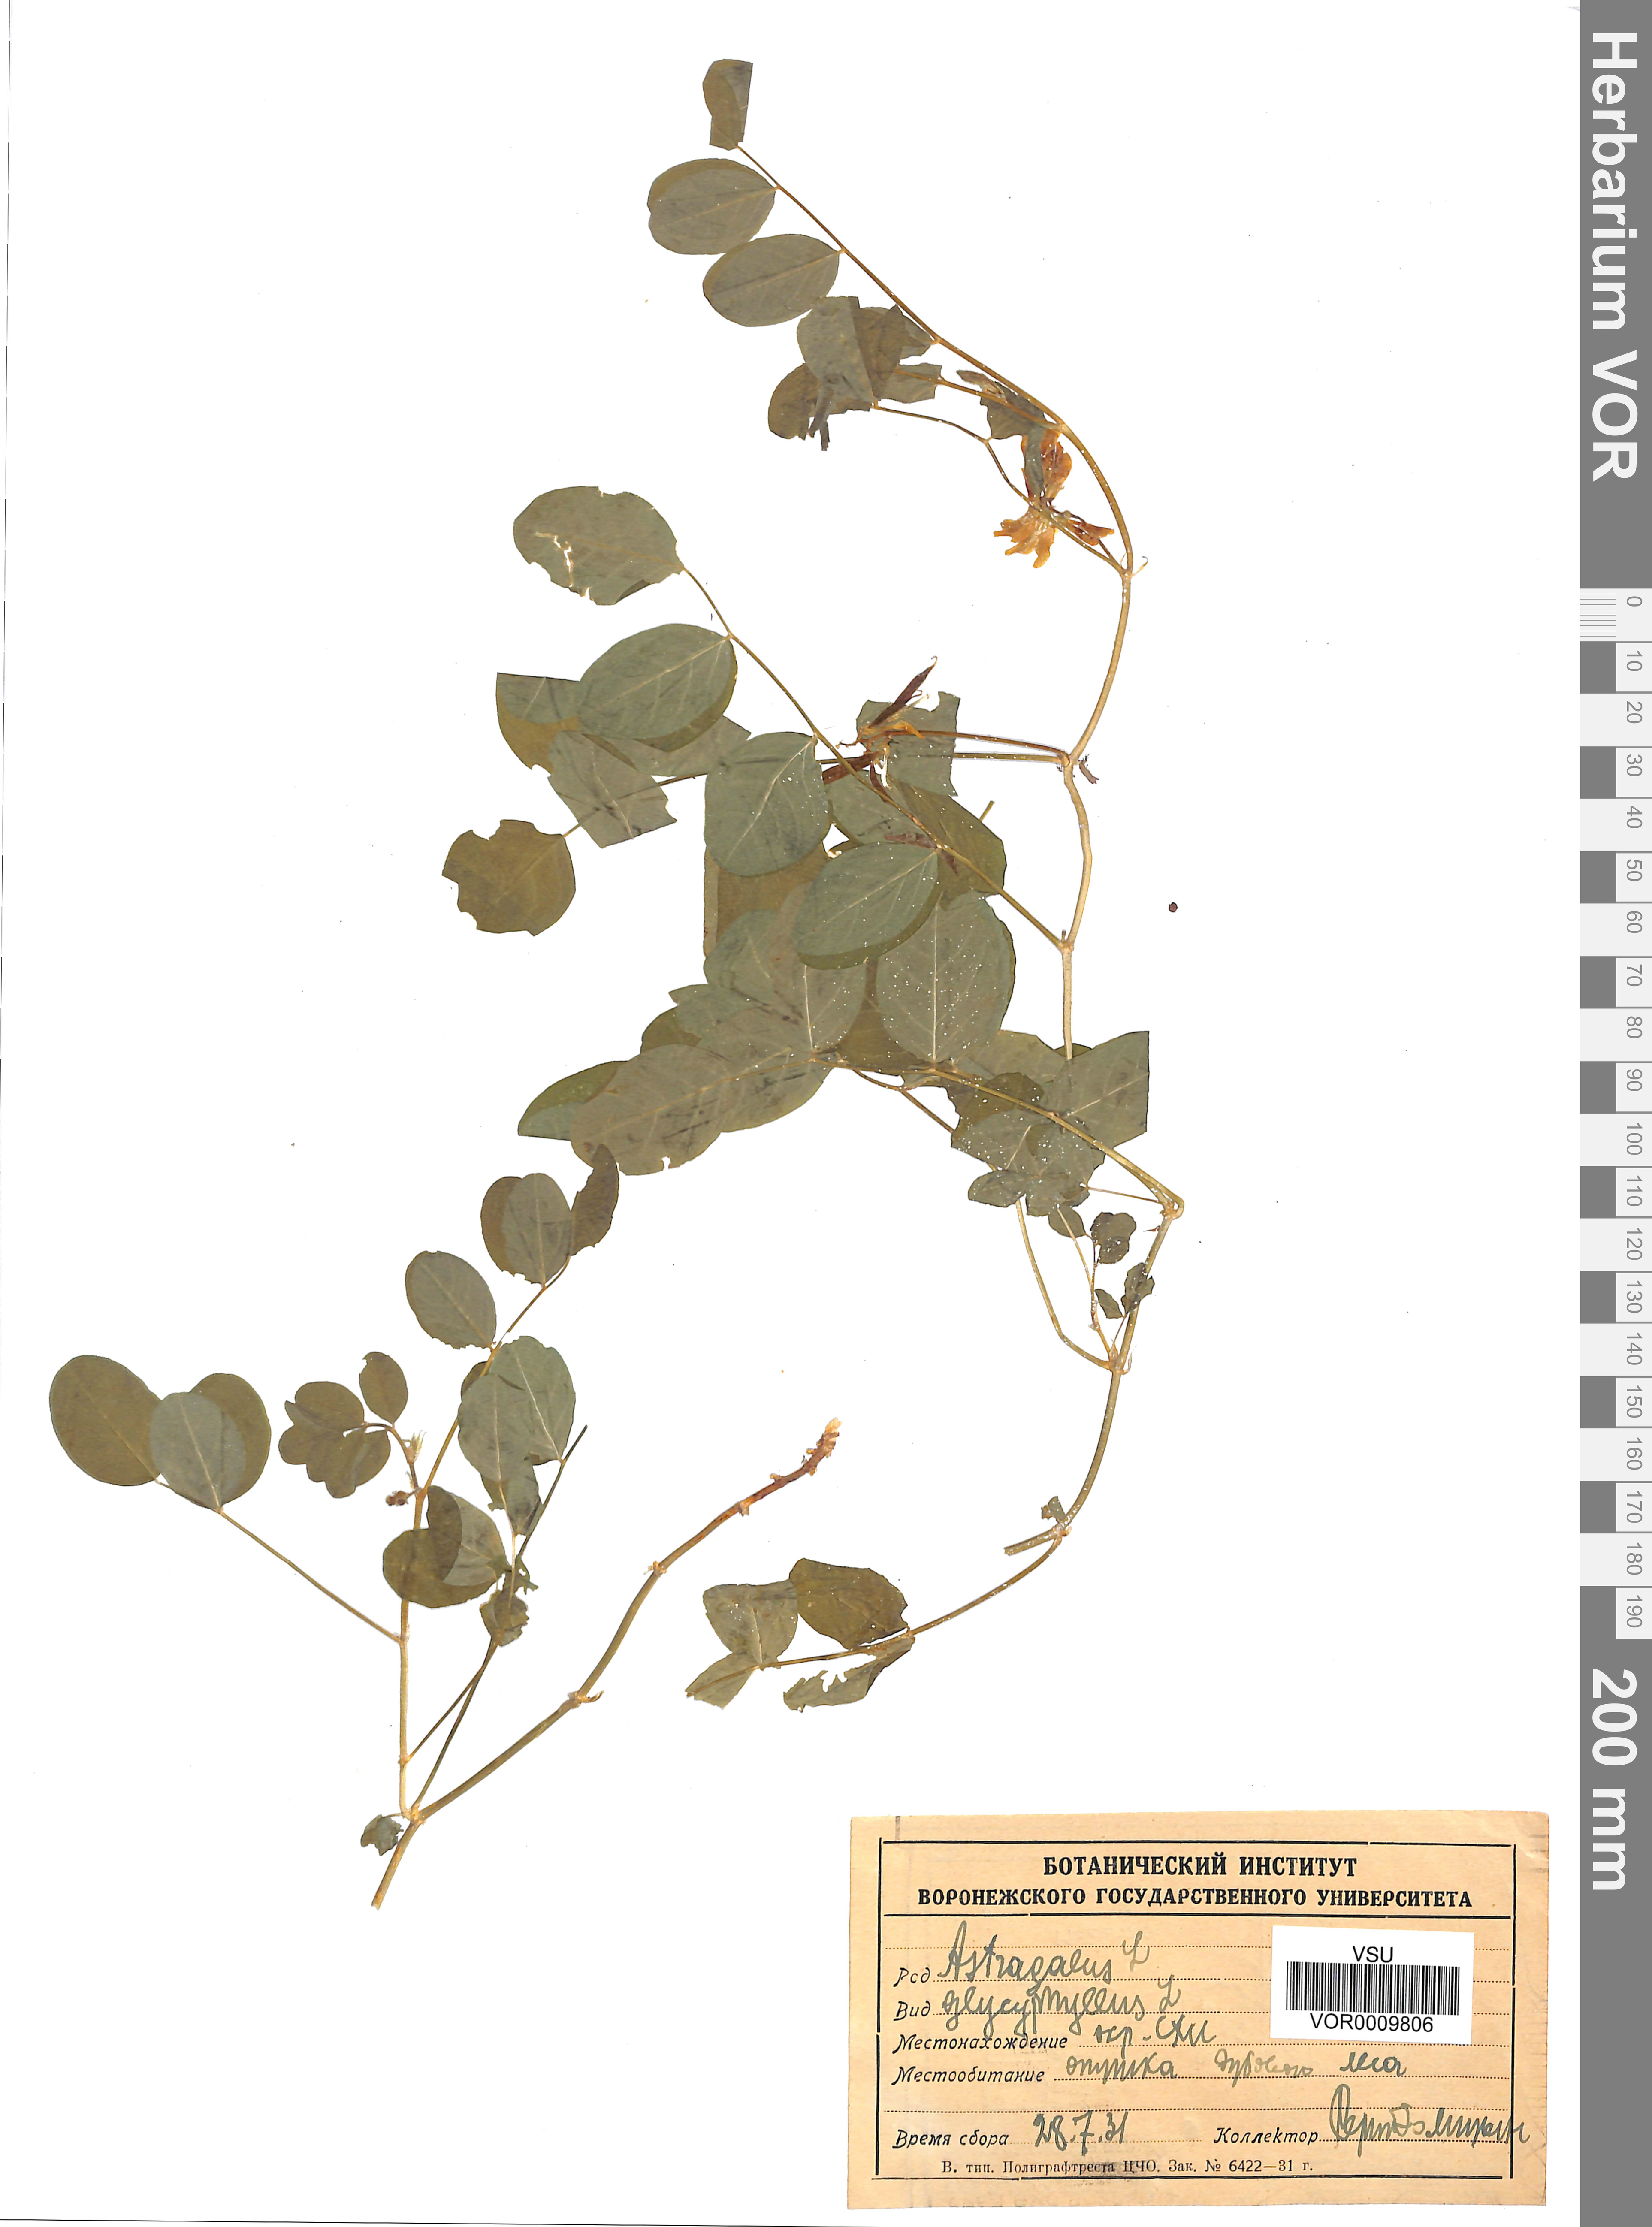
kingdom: Plantae
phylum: Tracheophyta
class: Magnoliopsida
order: Fabales
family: Fabaceae
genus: Astragalus
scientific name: Astragalus glycyphyllos
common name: Wild liquorice
